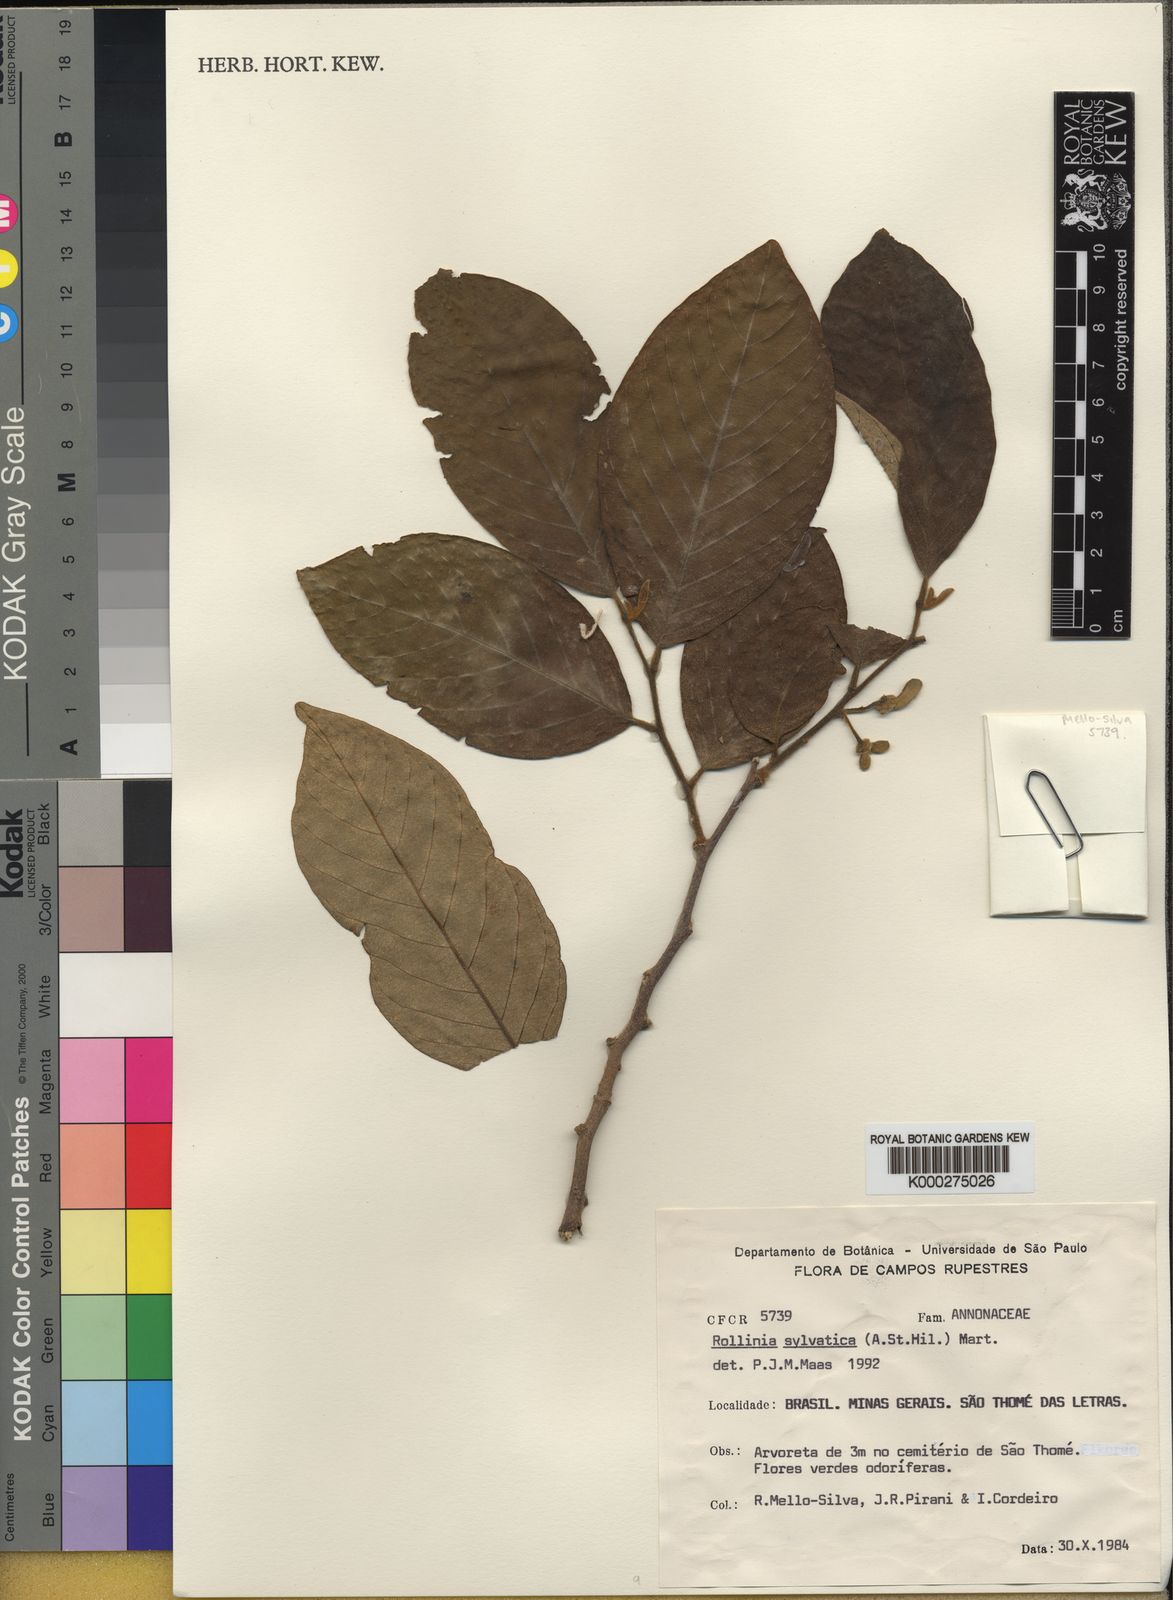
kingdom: Plantae
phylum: Tracheophyta
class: Magnoliopsida
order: Magnoliales
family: Annonaceae
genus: Annona
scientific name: Annona sylvatica
